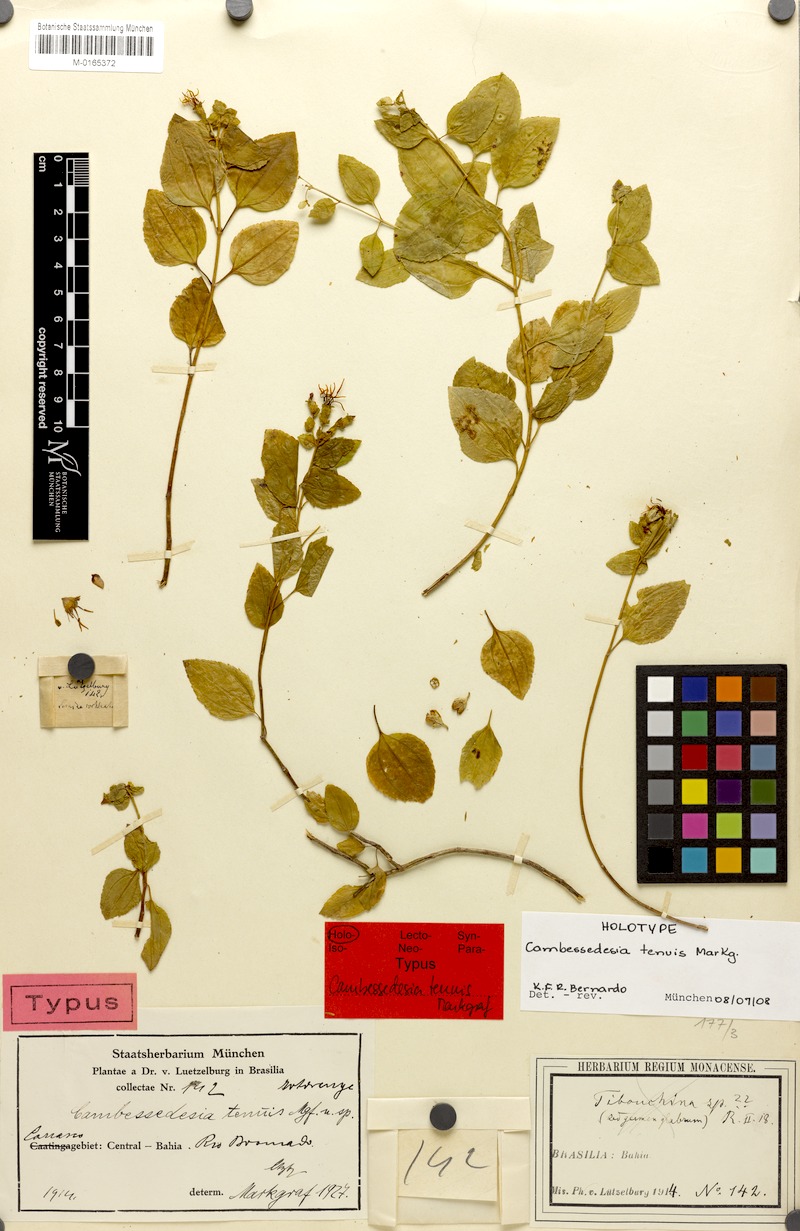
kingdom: Plantae
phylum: Tracheophyta
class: Magnoliopsida
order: Myrtales
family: Melastomataceae
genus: Cambessedesia
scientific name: Cambessedesia tenuis
